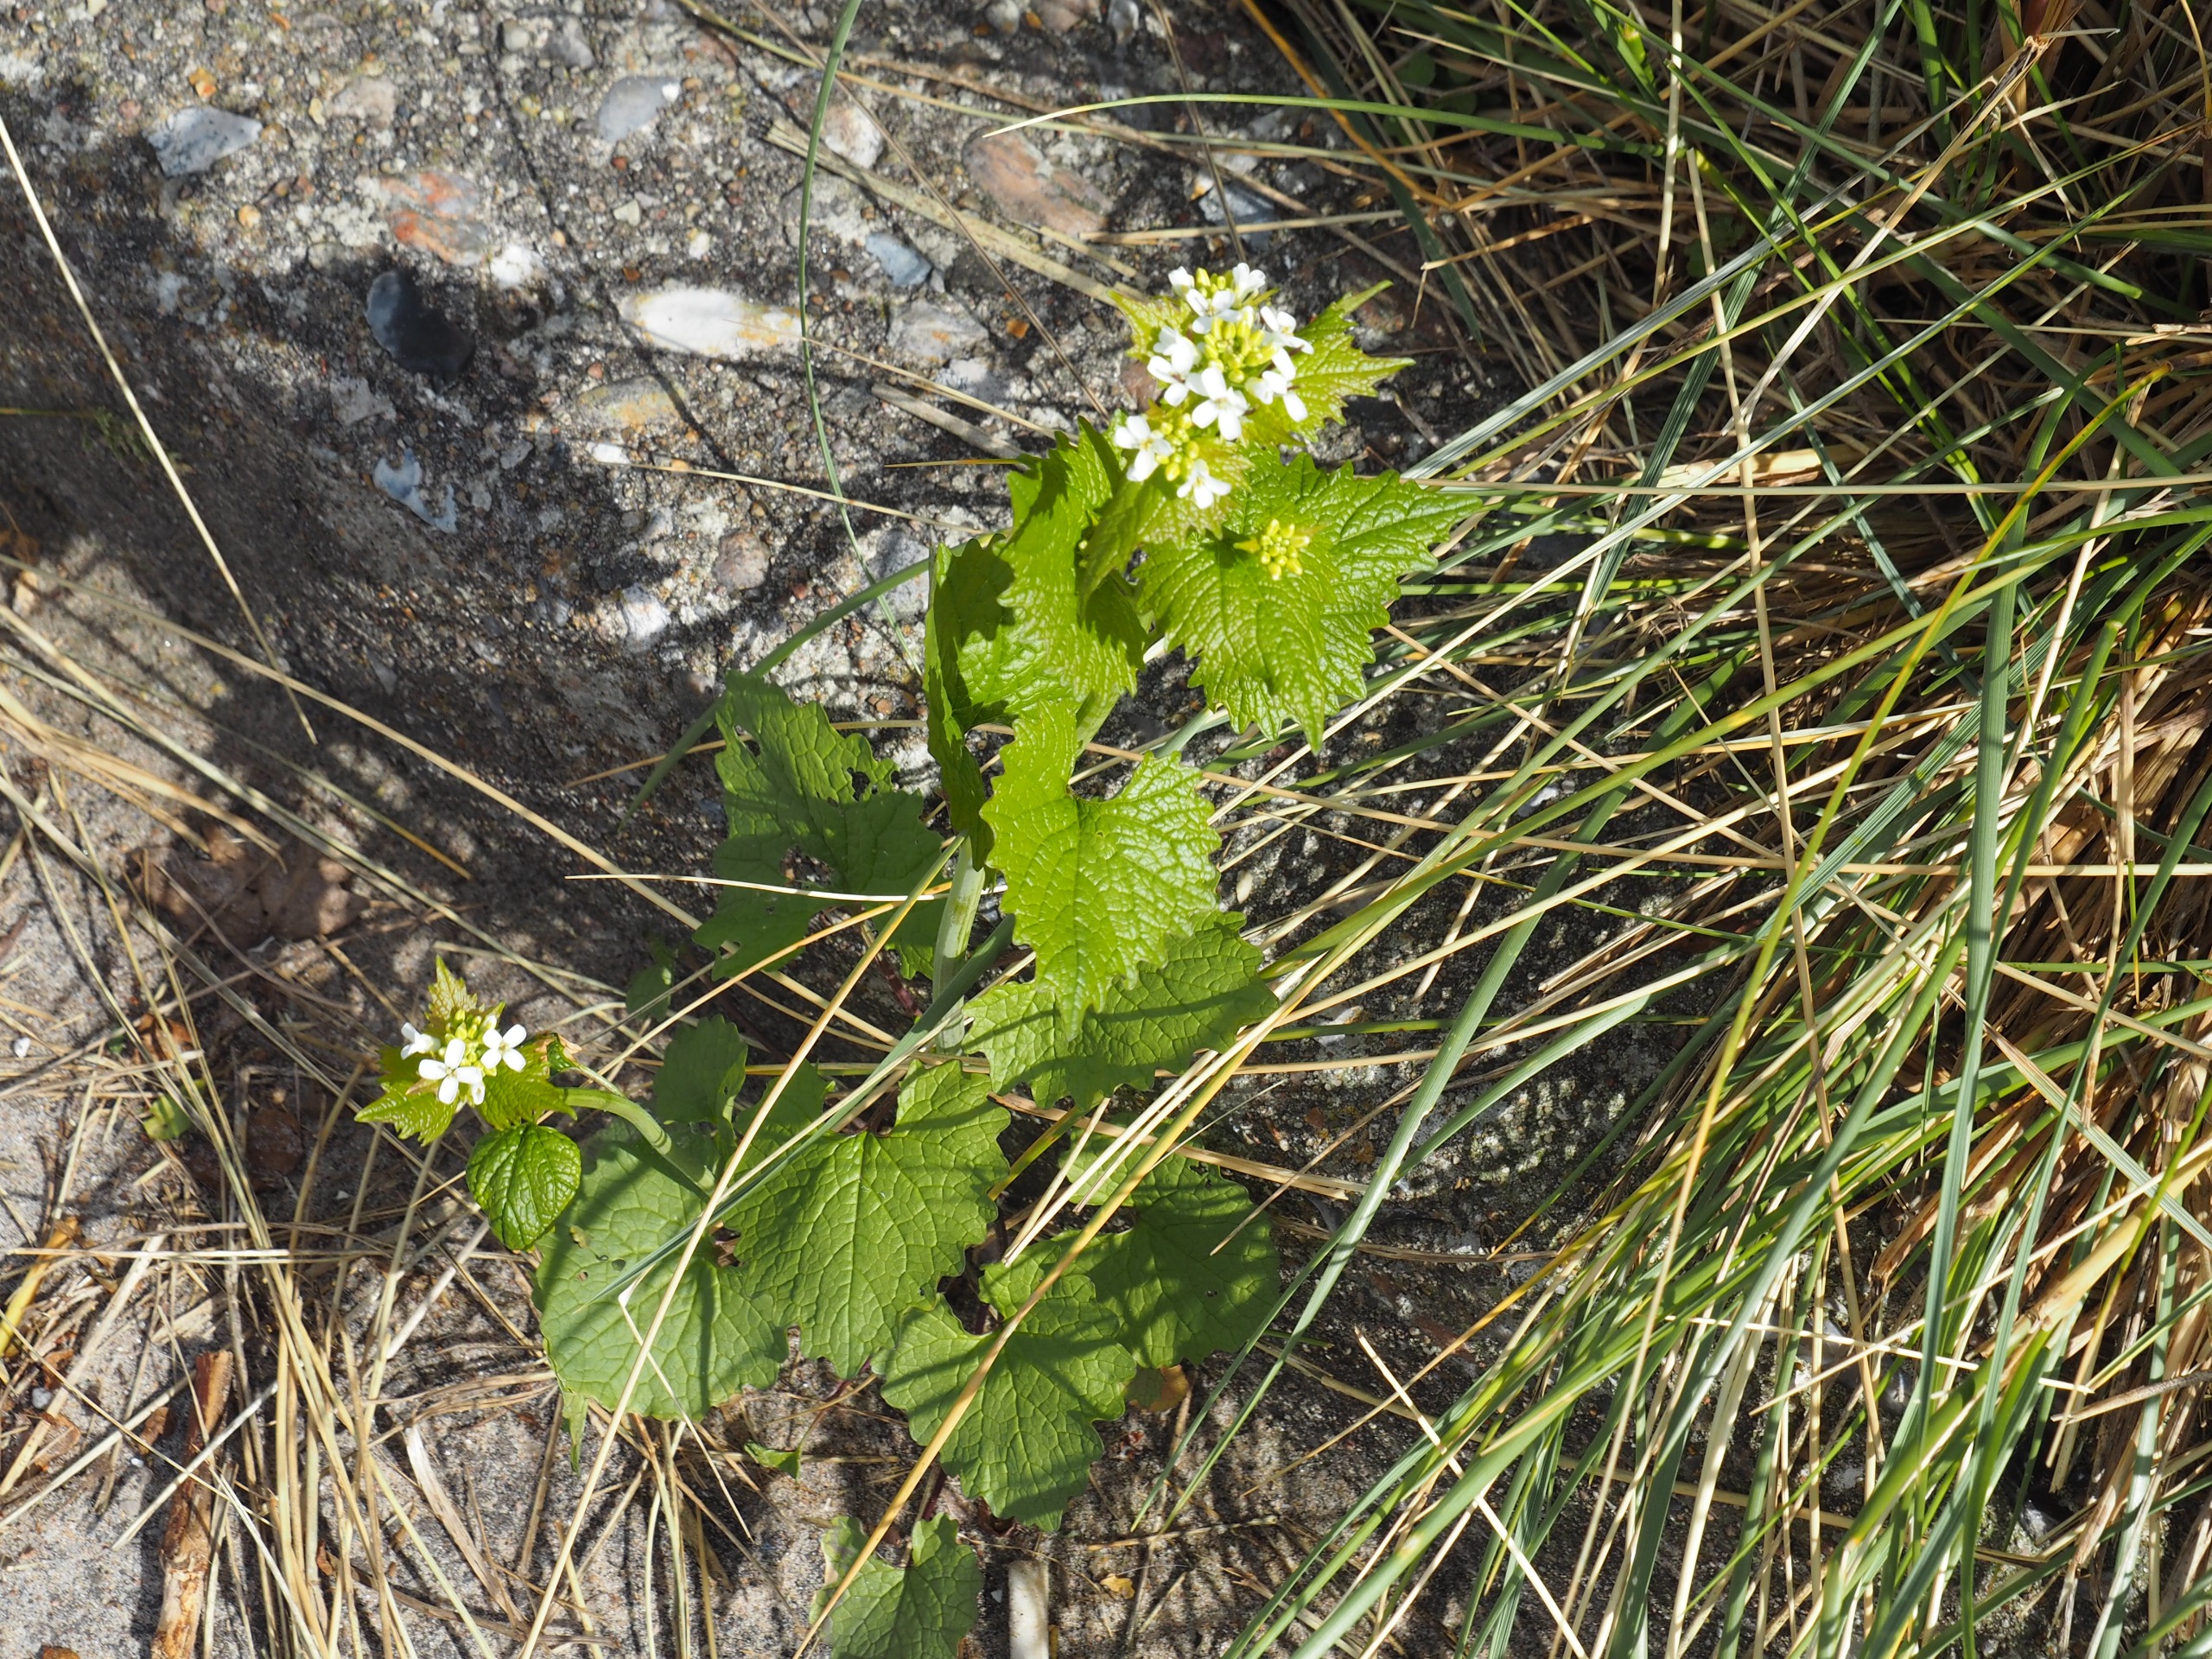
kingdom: Plantae
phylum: Tracheophyta
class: Magnoliopsida
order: Brassicales
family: Brassicaceae
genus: Alliaria
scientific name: Alliaria petiolata
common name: Løgkarse
